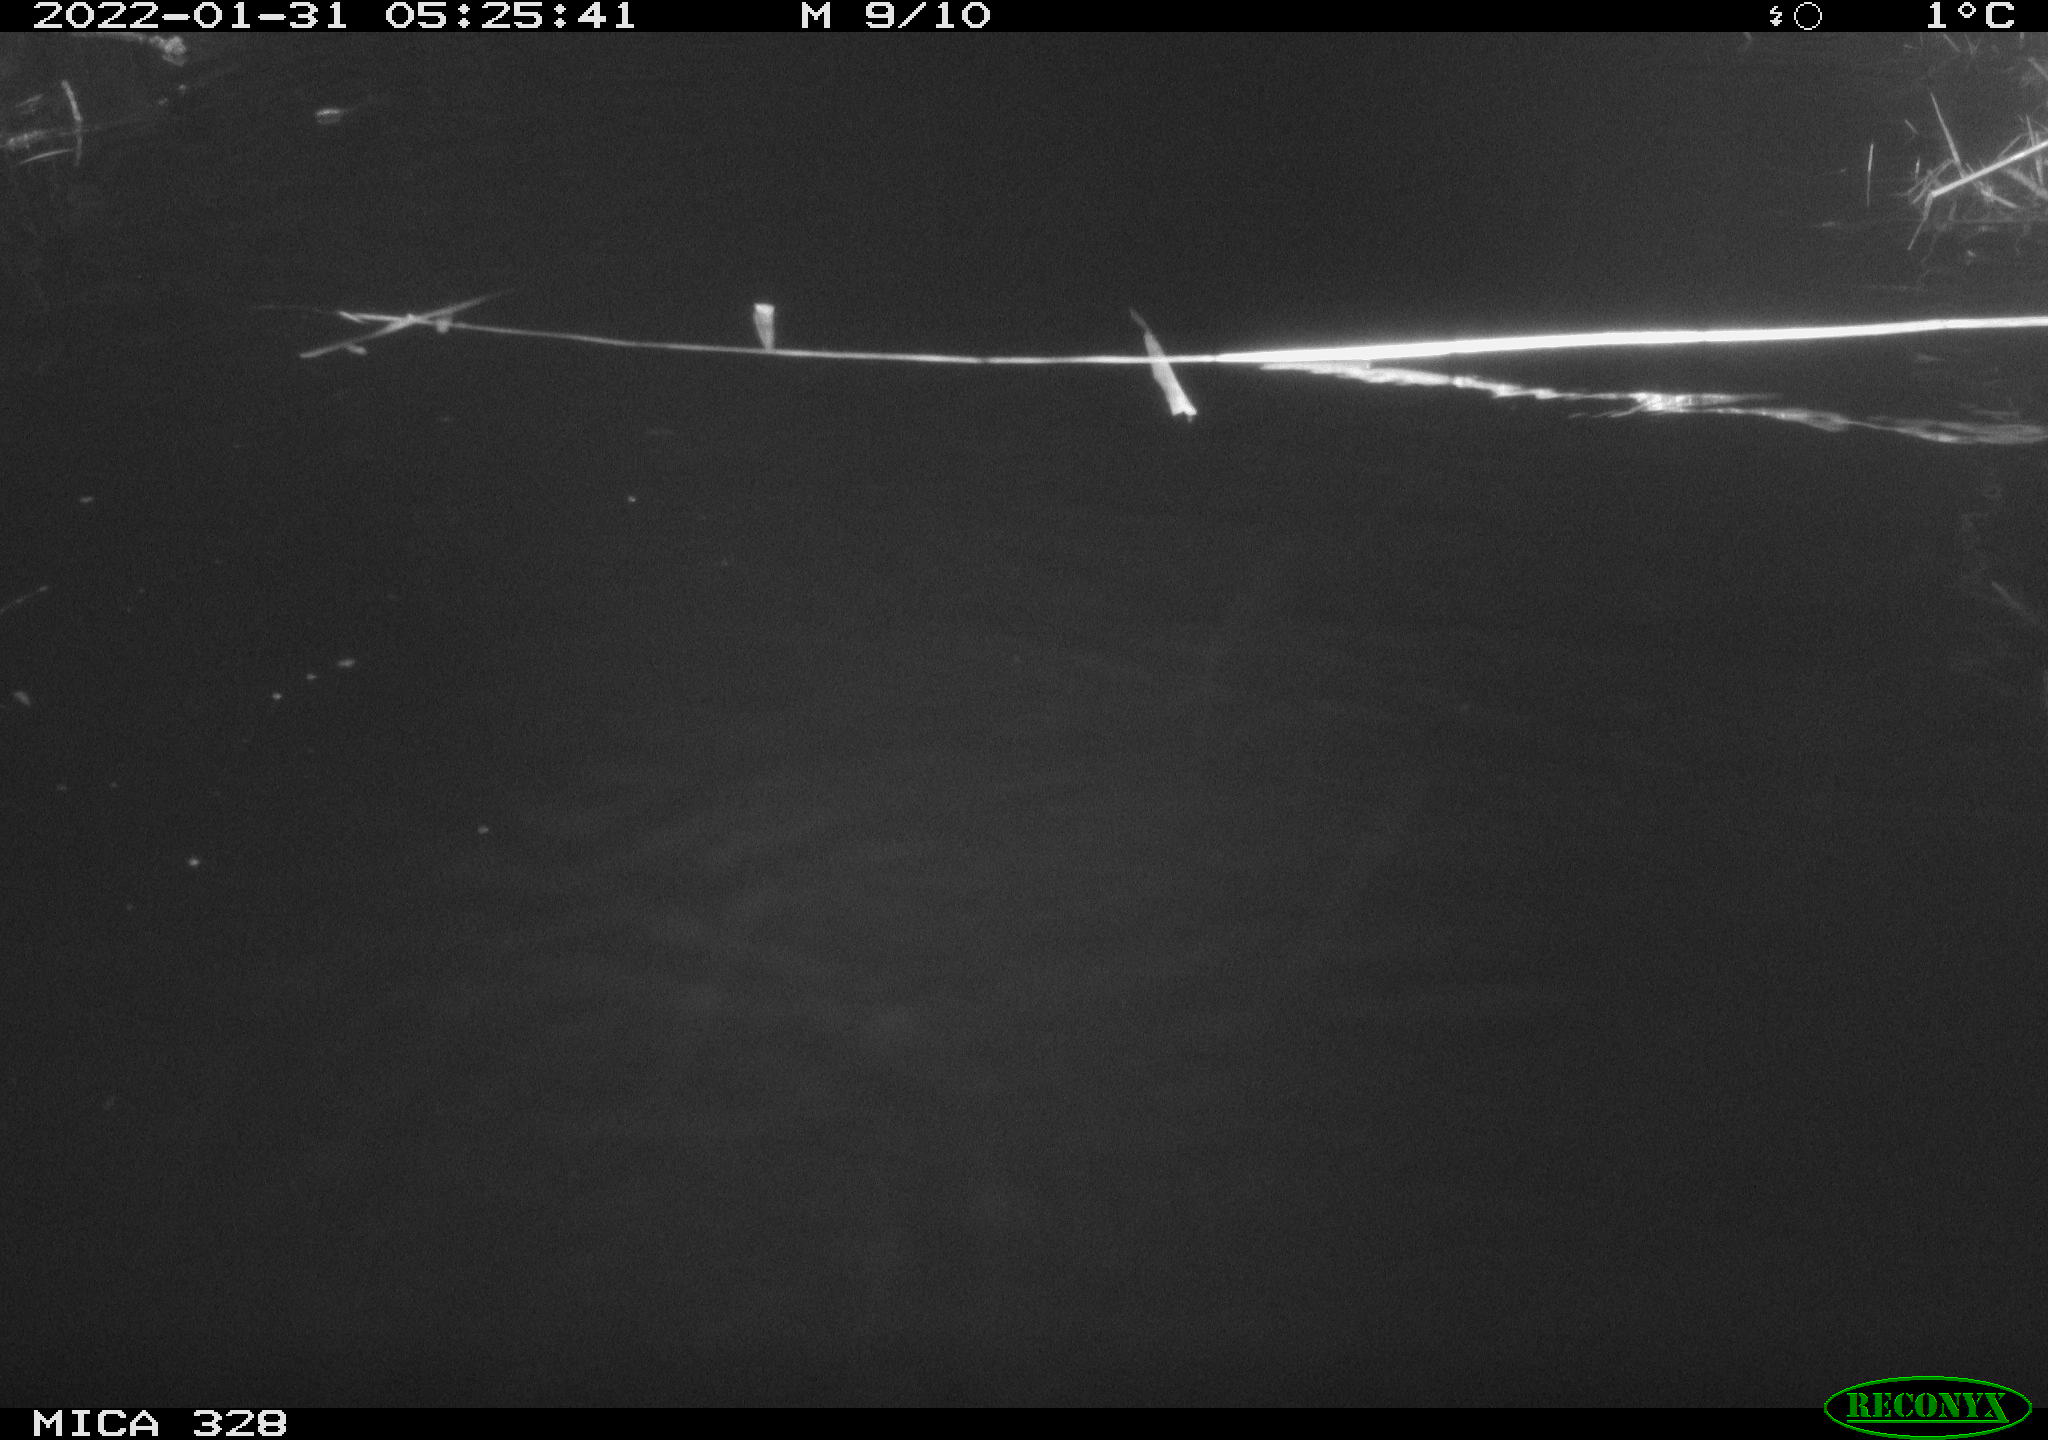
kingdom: Animalia
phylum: Chordata
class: Mammalia
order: Rodentia
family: Cricetidae
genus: Ondatra
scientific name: Ondatra zibethicus
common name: Muskrat
